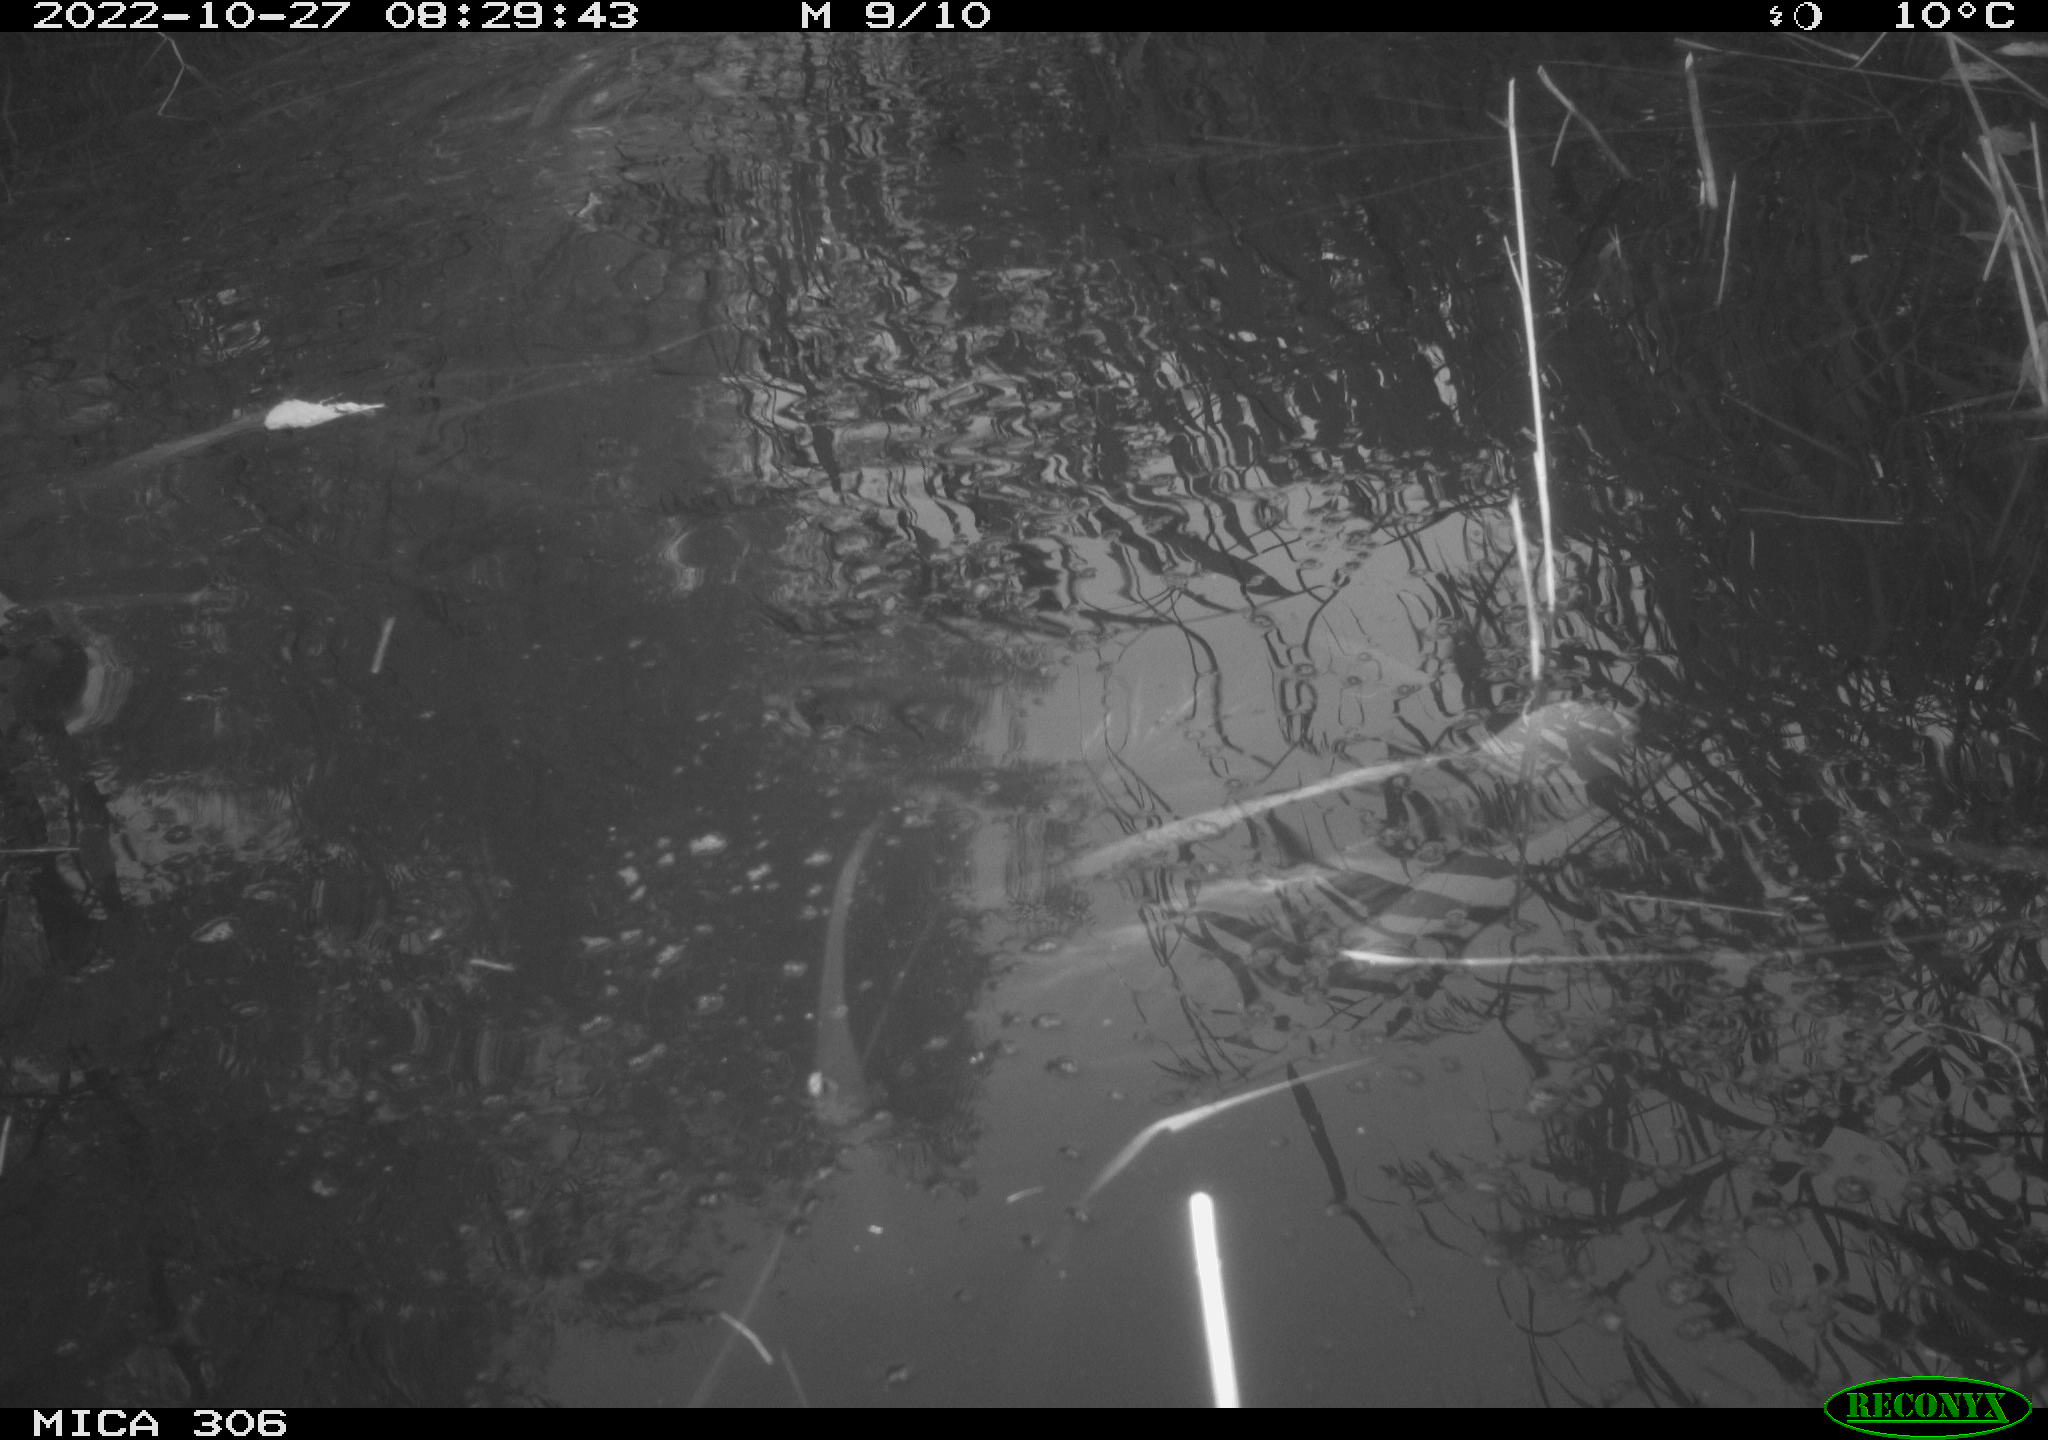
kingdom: Animalia
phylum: Chordata
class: Aves
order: Gruiformes
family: Rallidae
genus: Gallinula
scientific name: Gallinula chloropus
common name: Common moorhen
